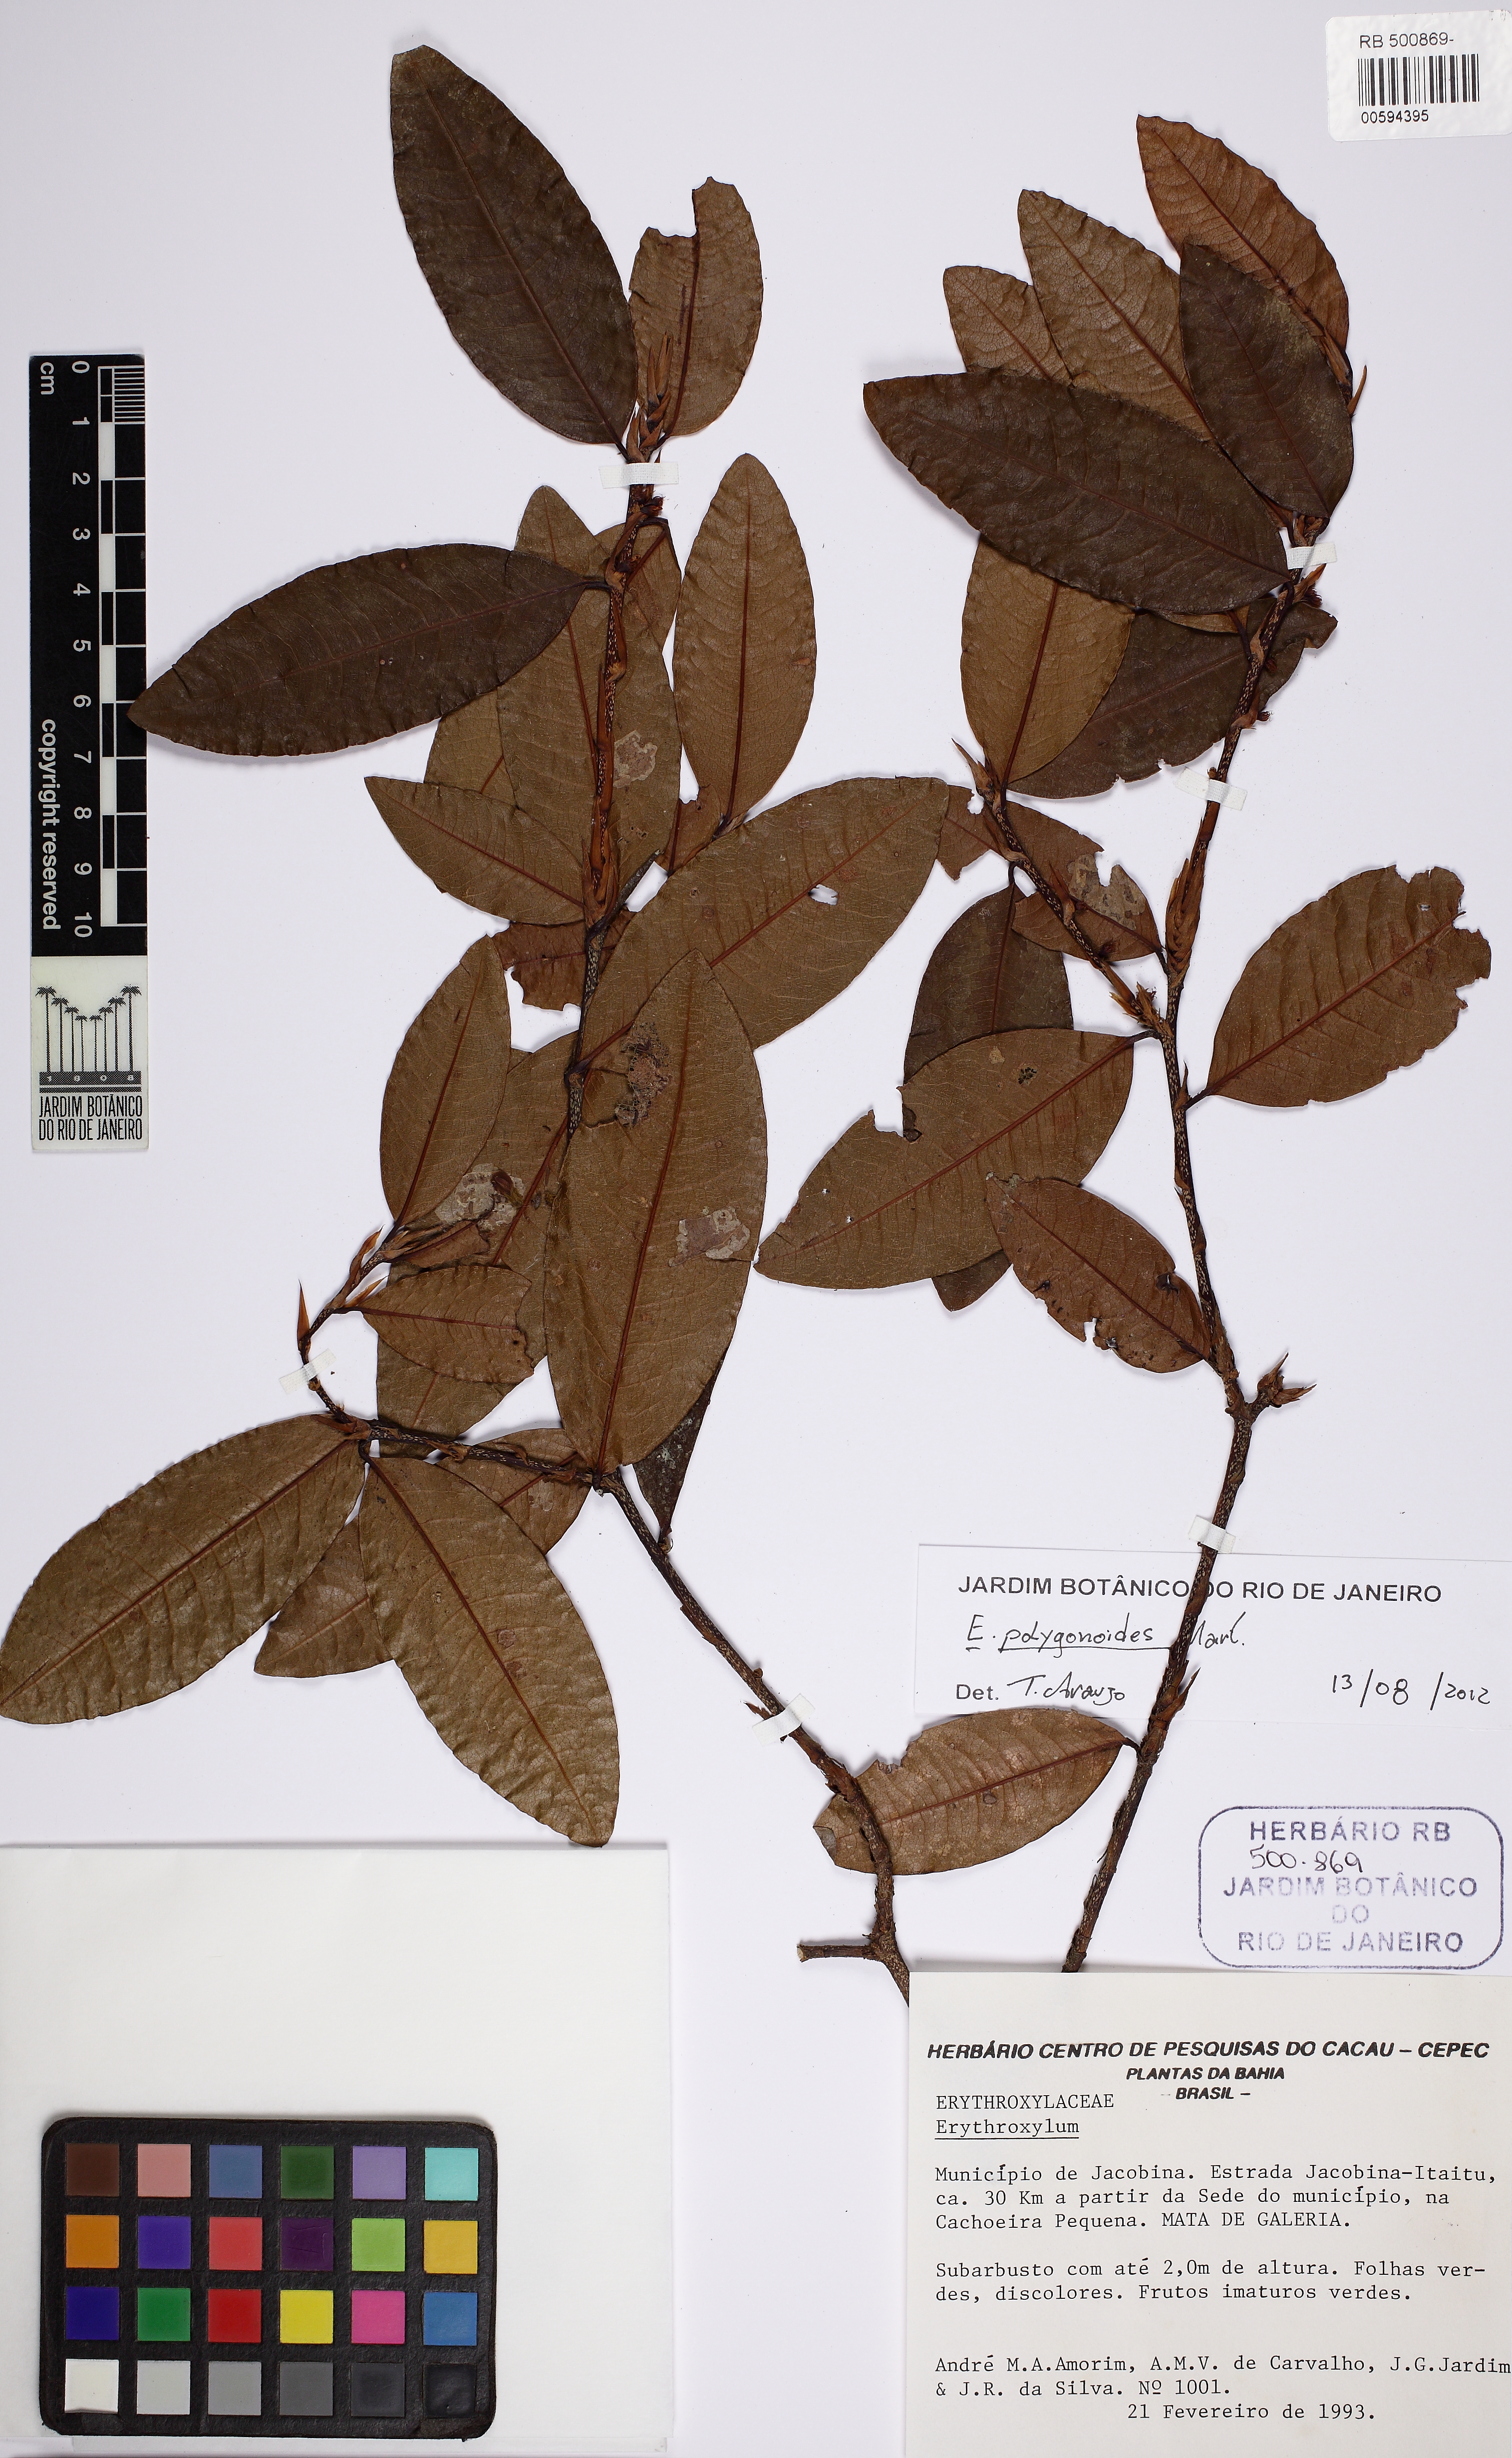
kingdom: Plantae
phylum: Tracheophyta
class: Magnoliopsida
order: Malpighiales
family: Erythroxylaceae
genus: Erythroxylum
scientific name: Erythroxylum polygonoides
